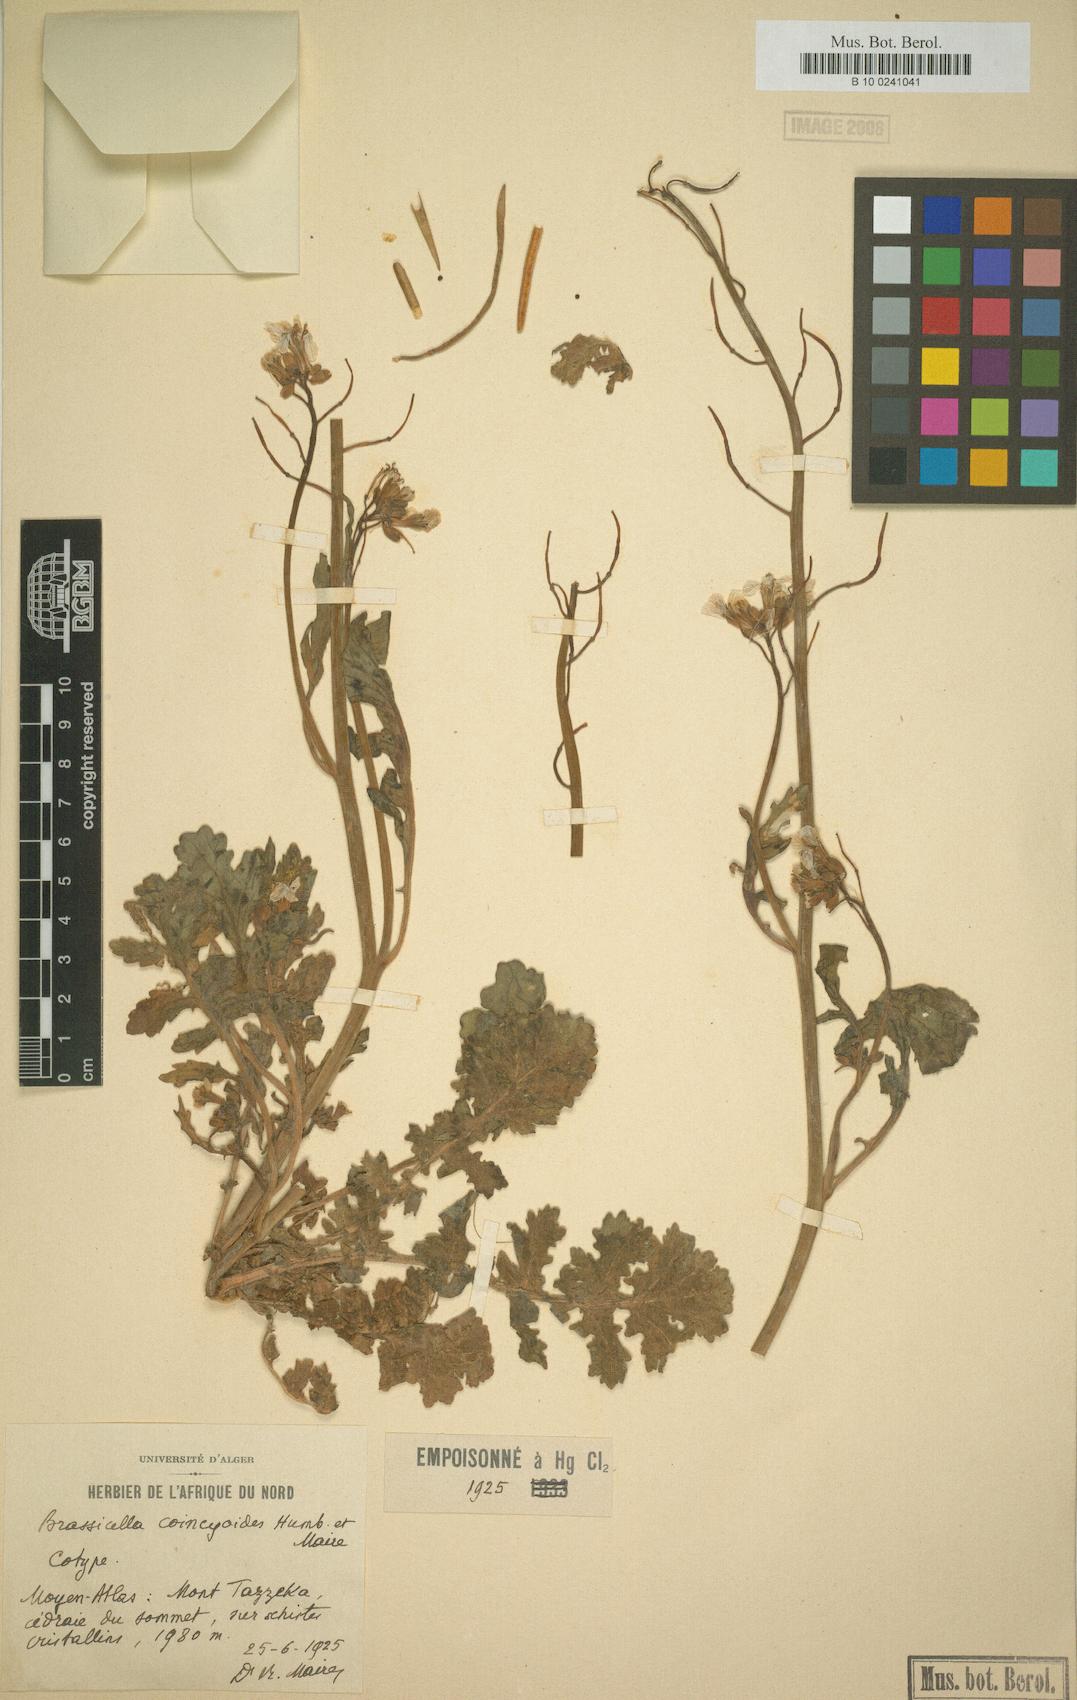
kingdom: Plantae
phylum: Tracheophyta
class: Magnoliopsida
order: Brassicales
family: Brassicaceae
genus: Coincya
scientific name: Coincya monensis
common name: Star-mustard
